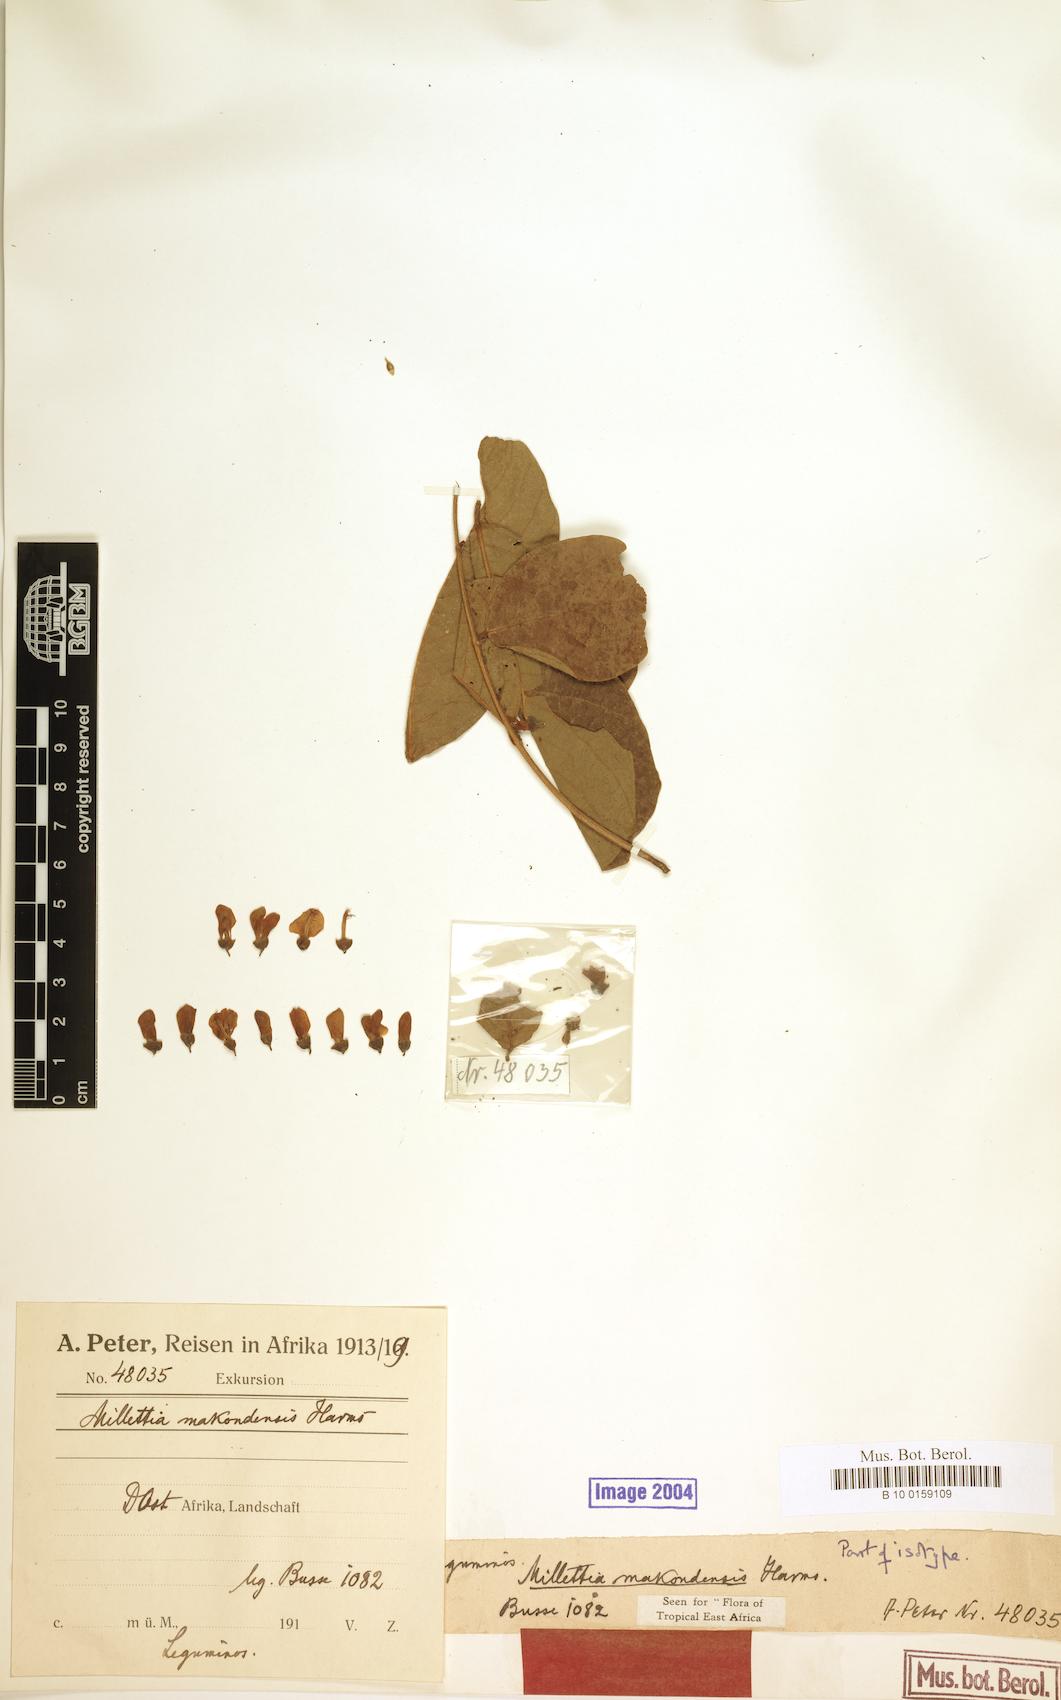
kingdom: Plantae
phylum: Tracheophyta
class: Magnoliopsida
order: Fabales
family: Fabaceae
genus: Millettia
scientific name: Millettia makondensis
